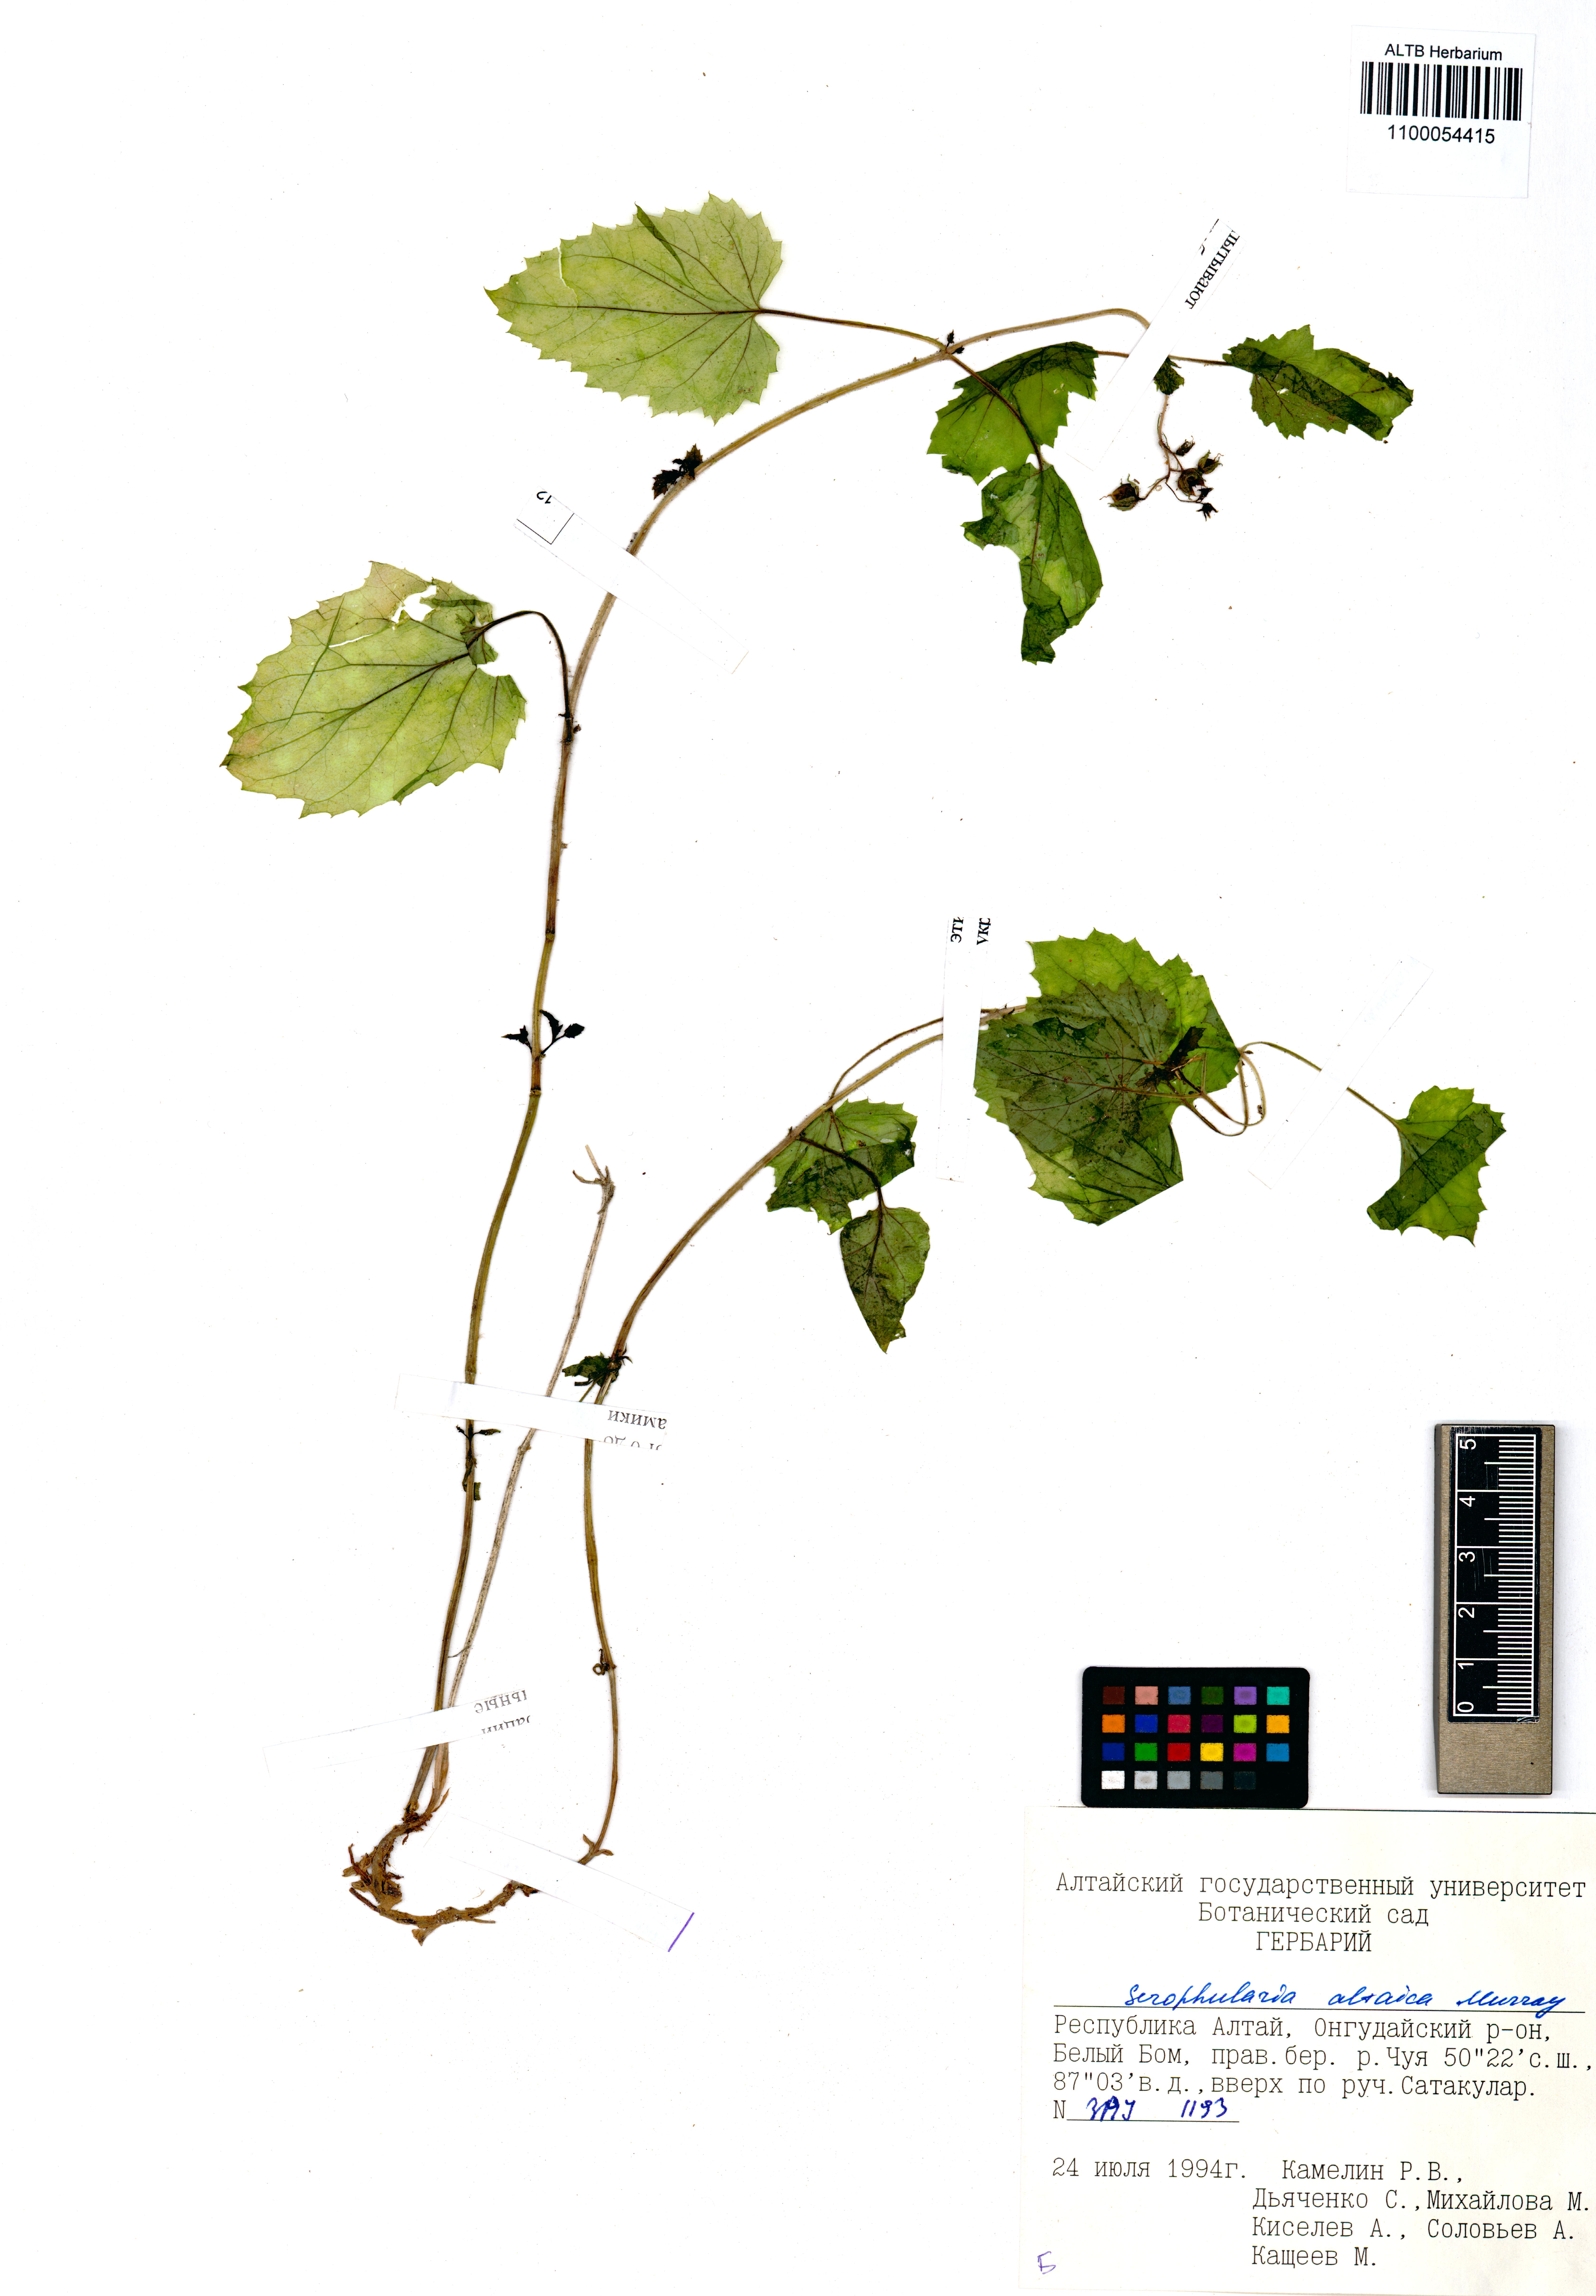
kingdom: Plantae
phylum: Tracheophyta
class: Magnoliopsida
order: Lamiales
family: Scrophulariaceae
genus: Scrophularia
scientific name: Scrophularia altaica
